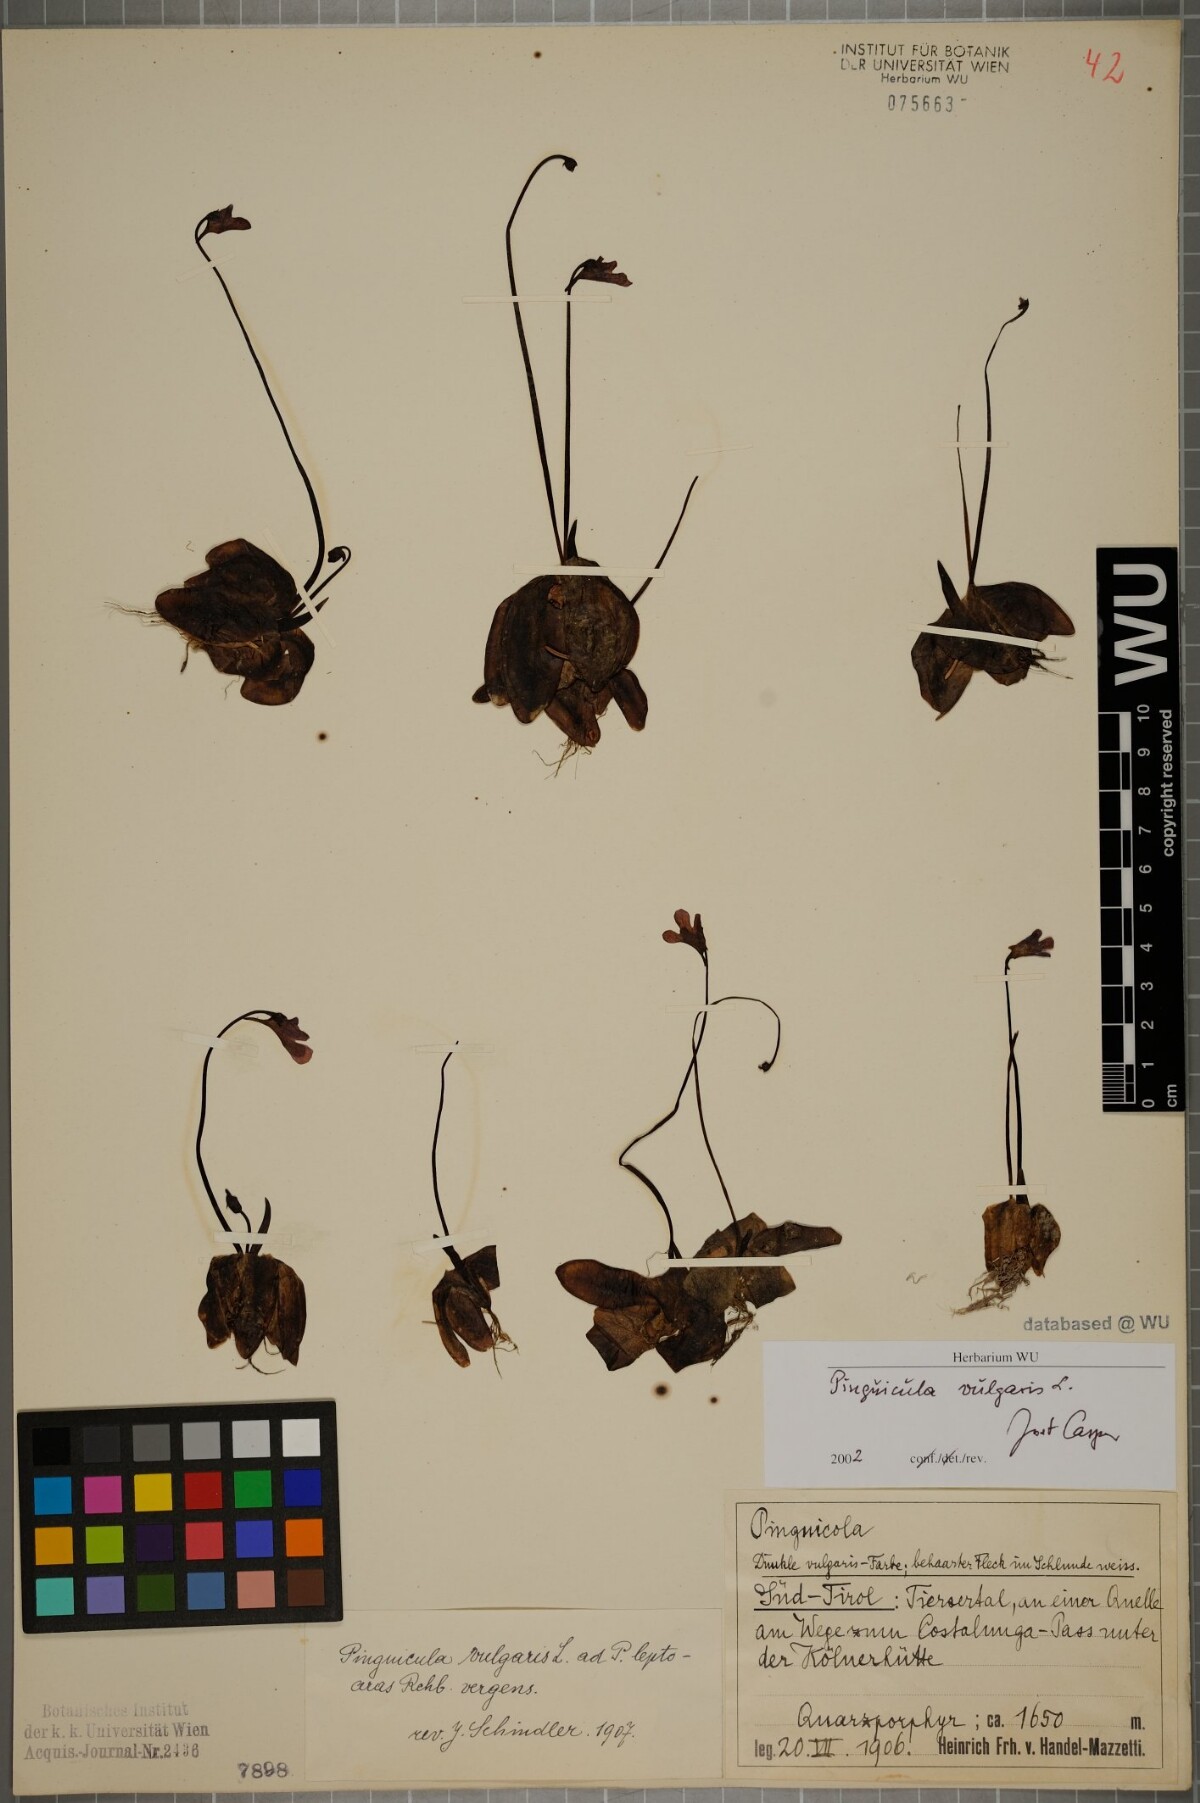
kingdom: Plantae
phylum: Tracheophyta
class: Magnoliopsida
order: Lamiales
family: Lentibulariaceae
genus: Pinguicula
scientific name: Pinguicula vulgaris
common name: Common butterwort
